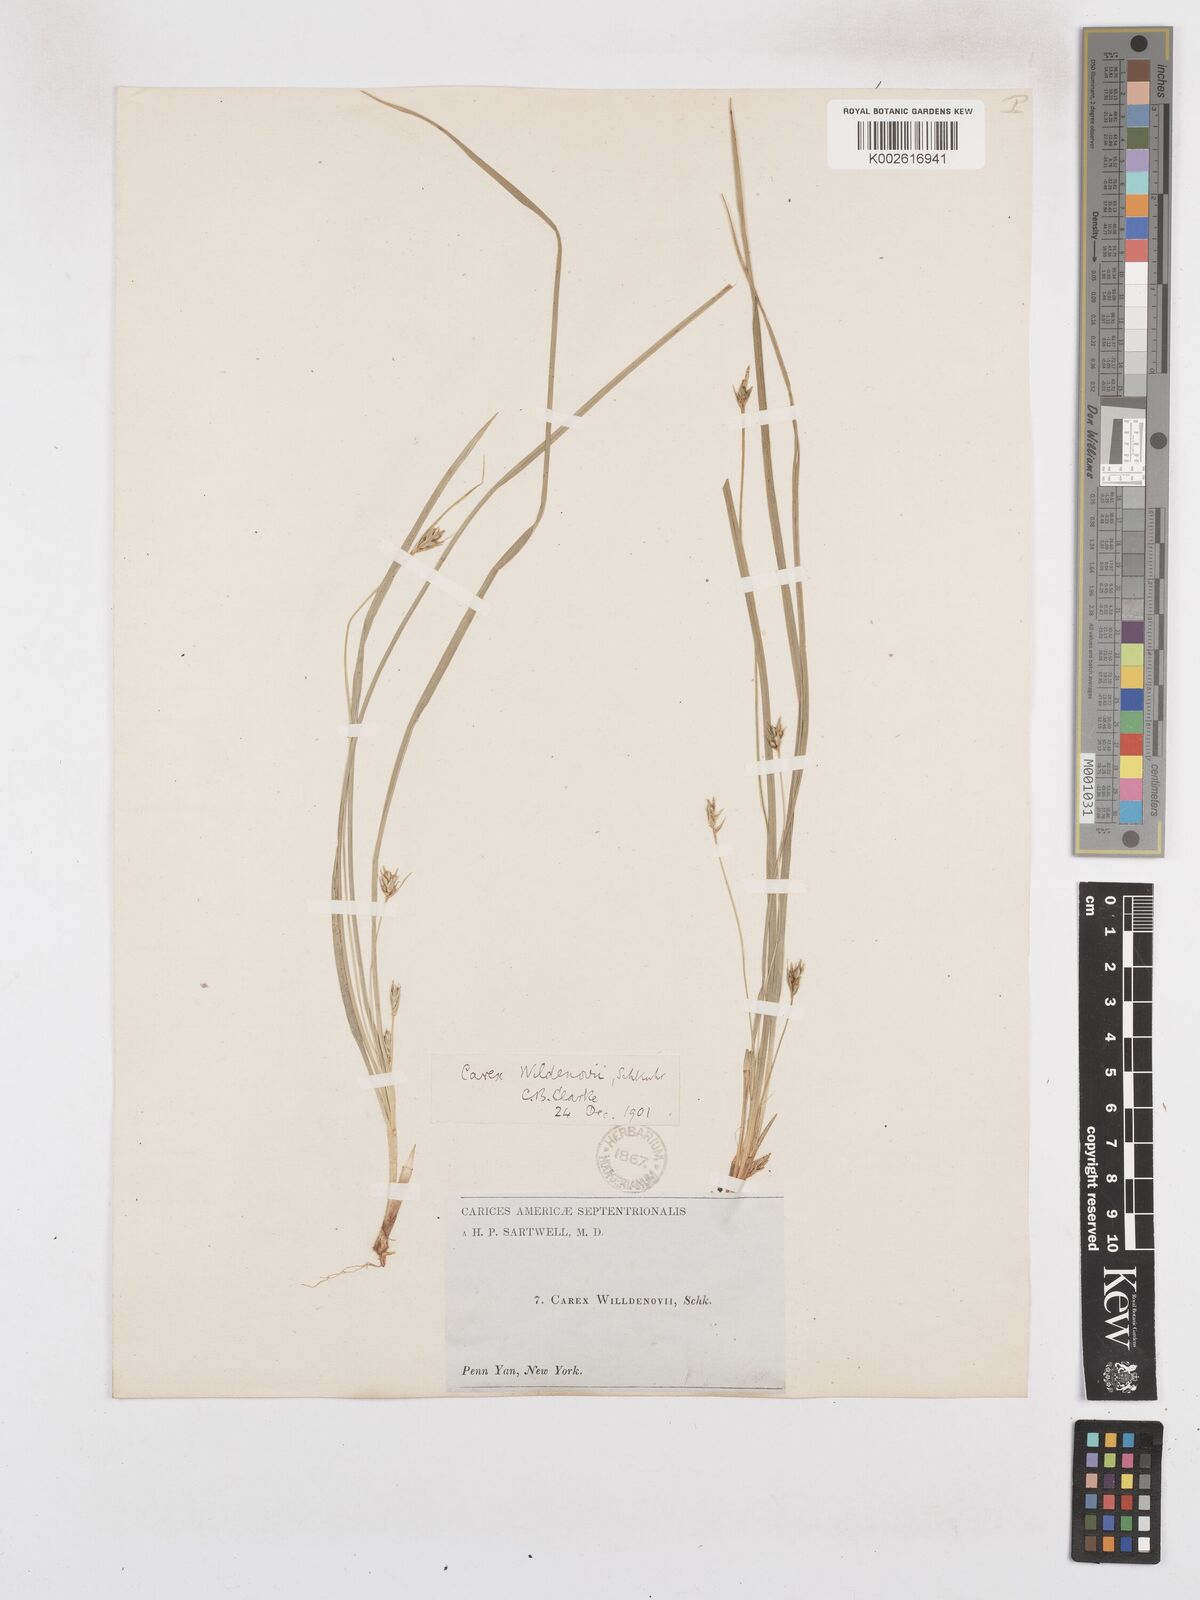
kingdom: Plantae
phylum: Tracheophyta
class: Liliopsida
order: Poales
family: Cyperaceae
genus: Carex
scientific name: Carex willdenowii
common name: Willdenow's sedge
